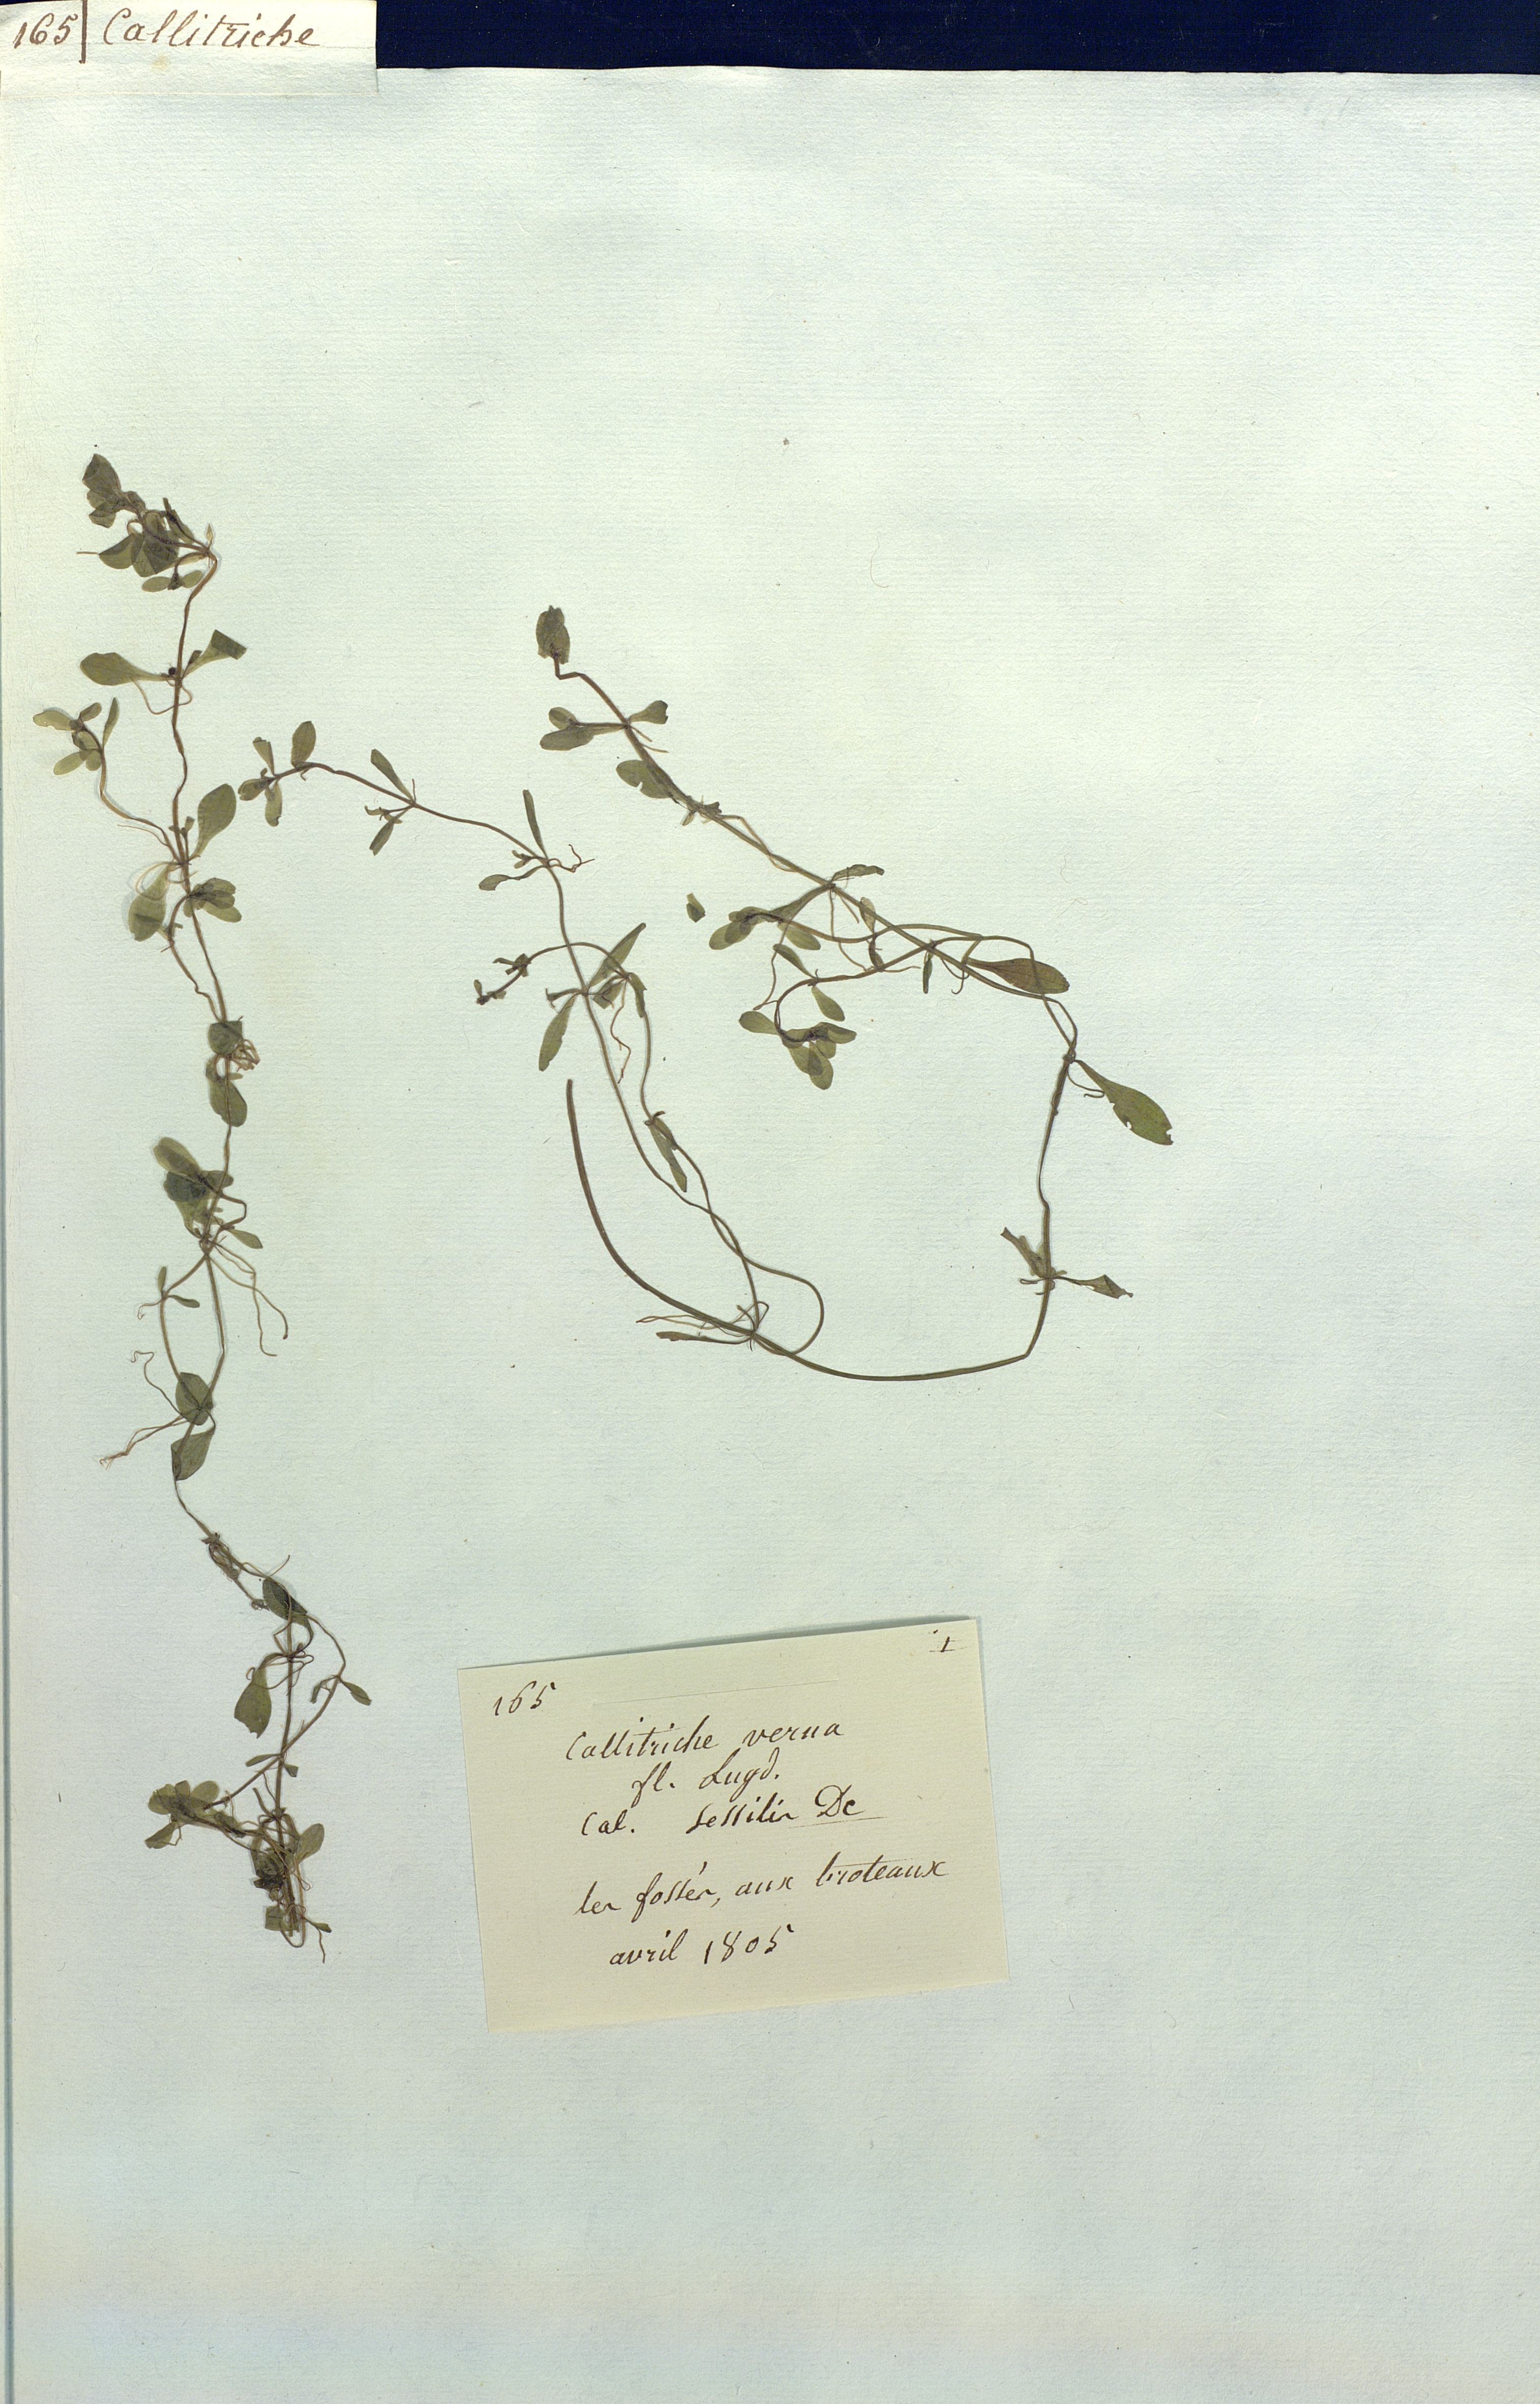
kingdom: Plantae
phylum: Tracheophyta
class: Magnoliopsida
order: Lamiales
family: Plantaginaceae
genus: Callitriche
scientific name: Callitriche
